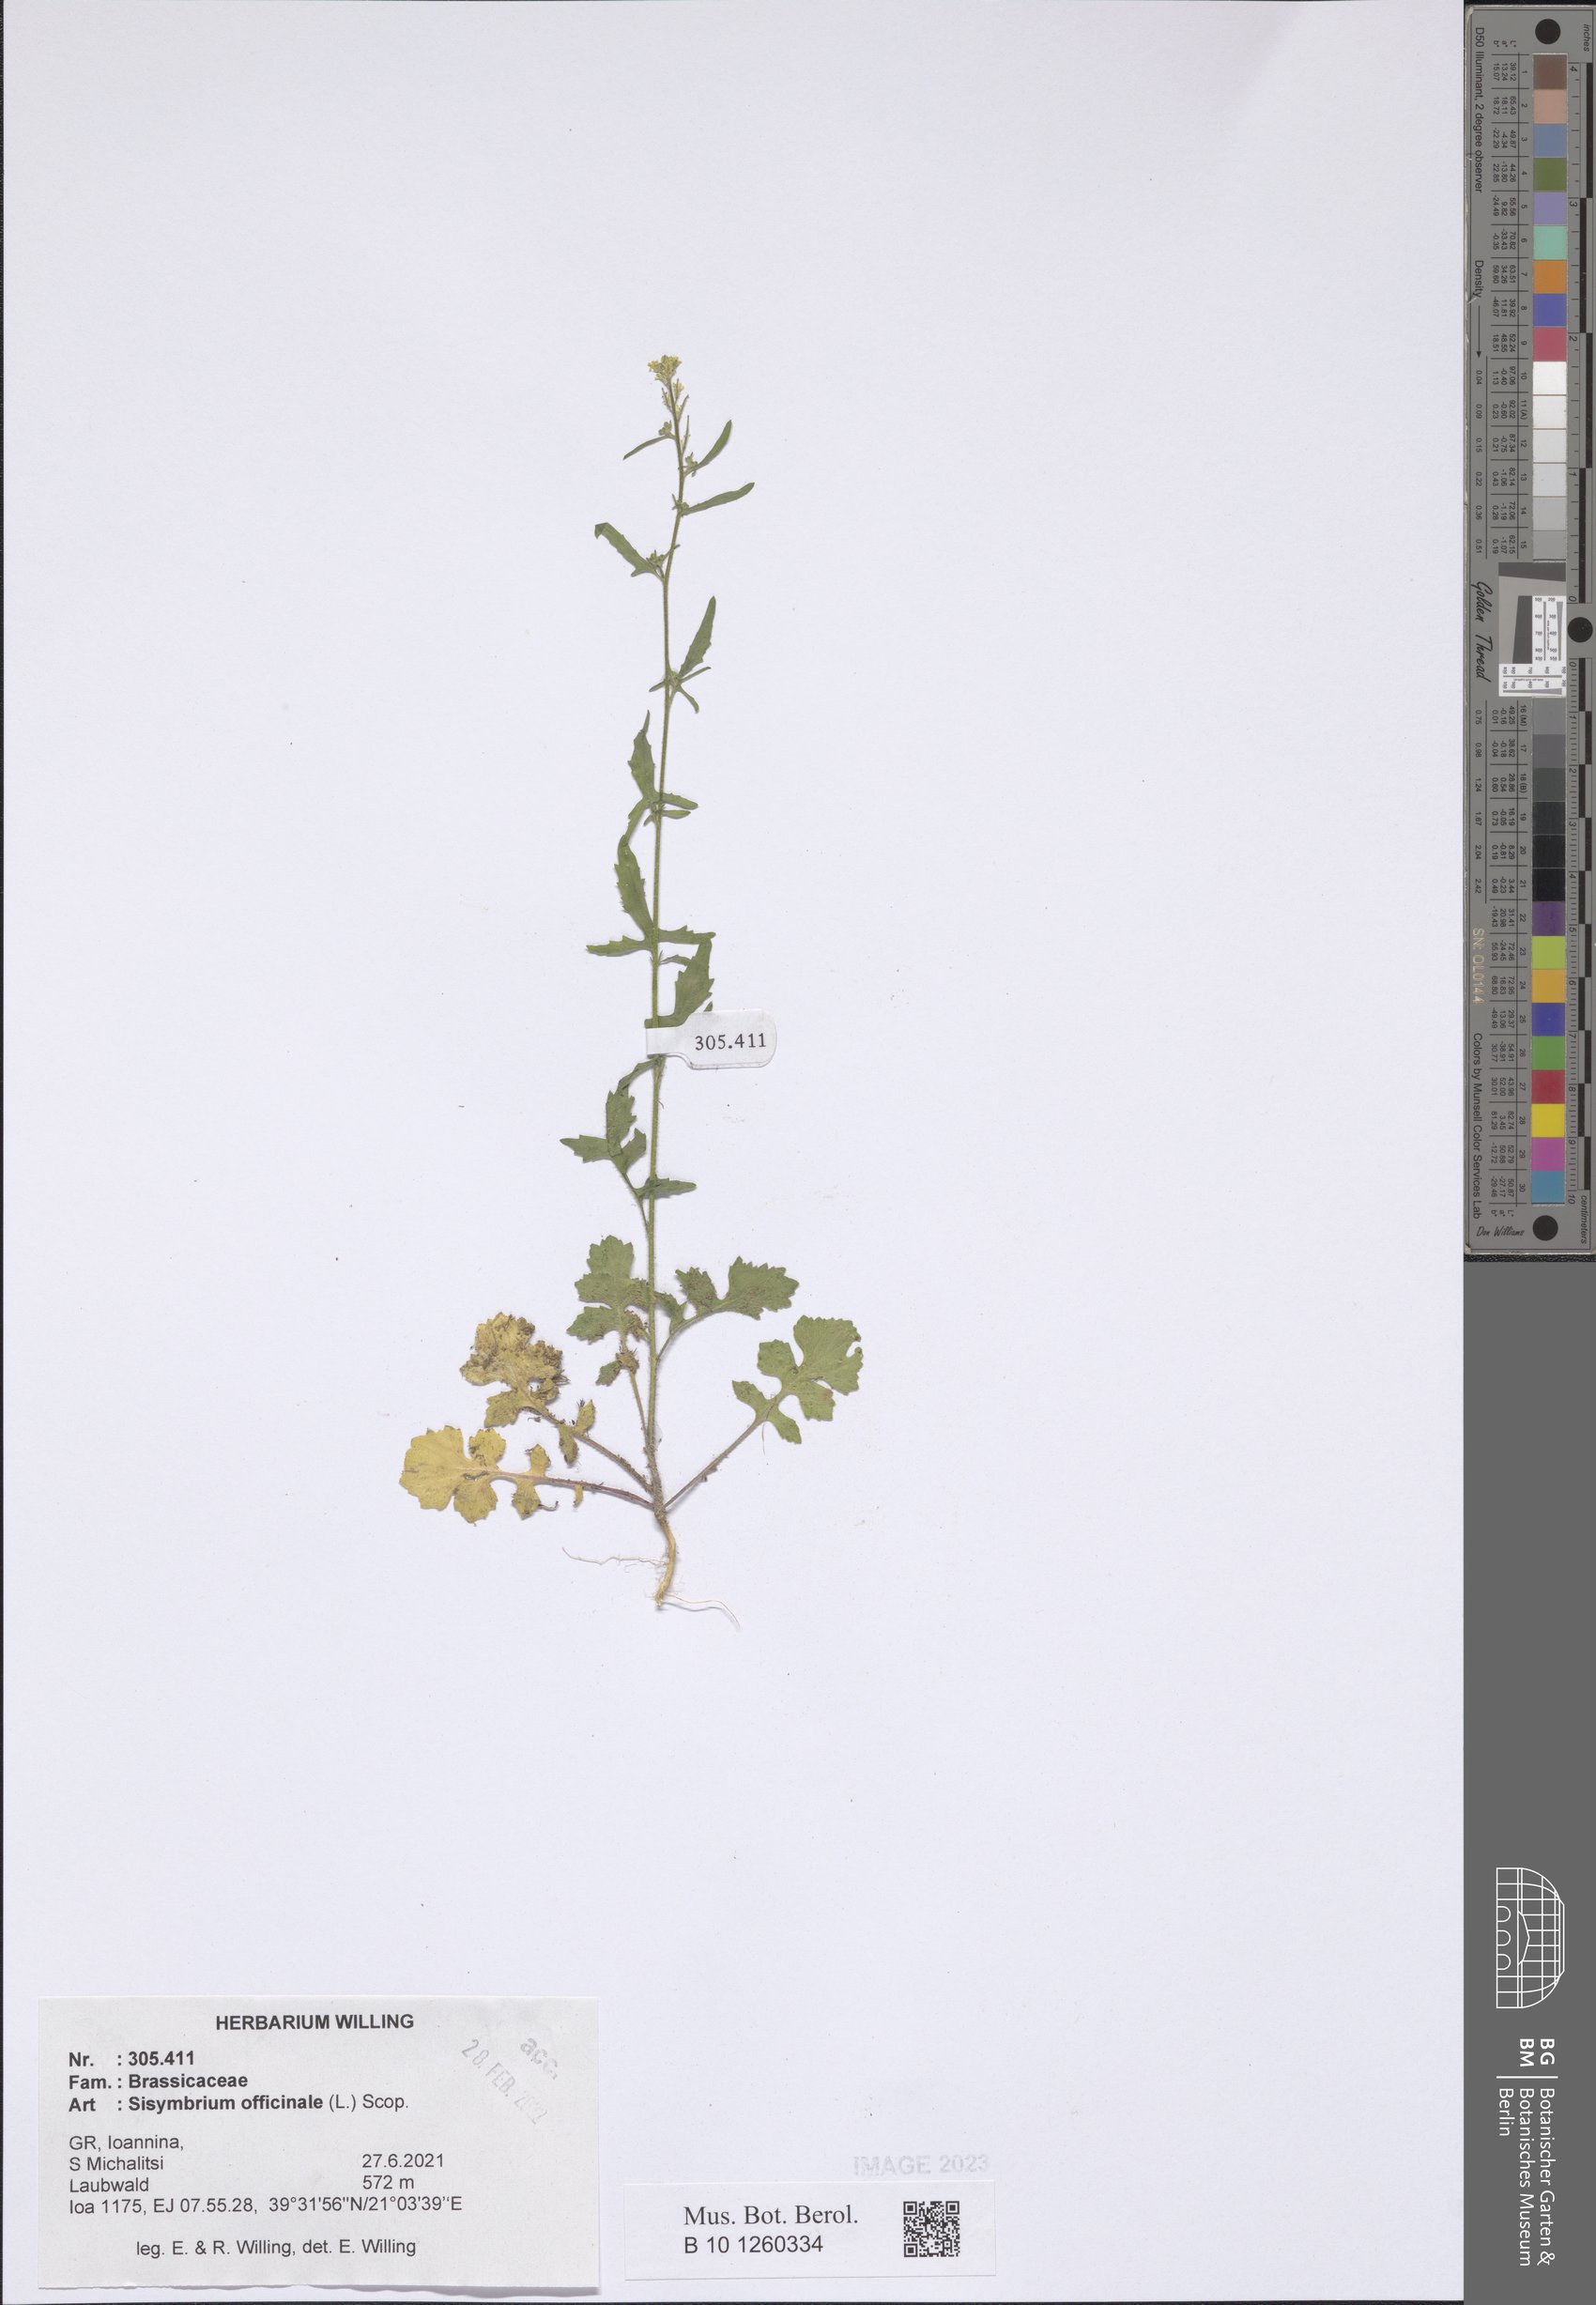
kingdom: Plantae
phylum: Tracheophyta
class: Magnoliopsida
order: Brassicales
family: Brassicaceae
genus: Sisymbrium
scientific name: Sisymbrium officinale
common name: Hedge mustard
